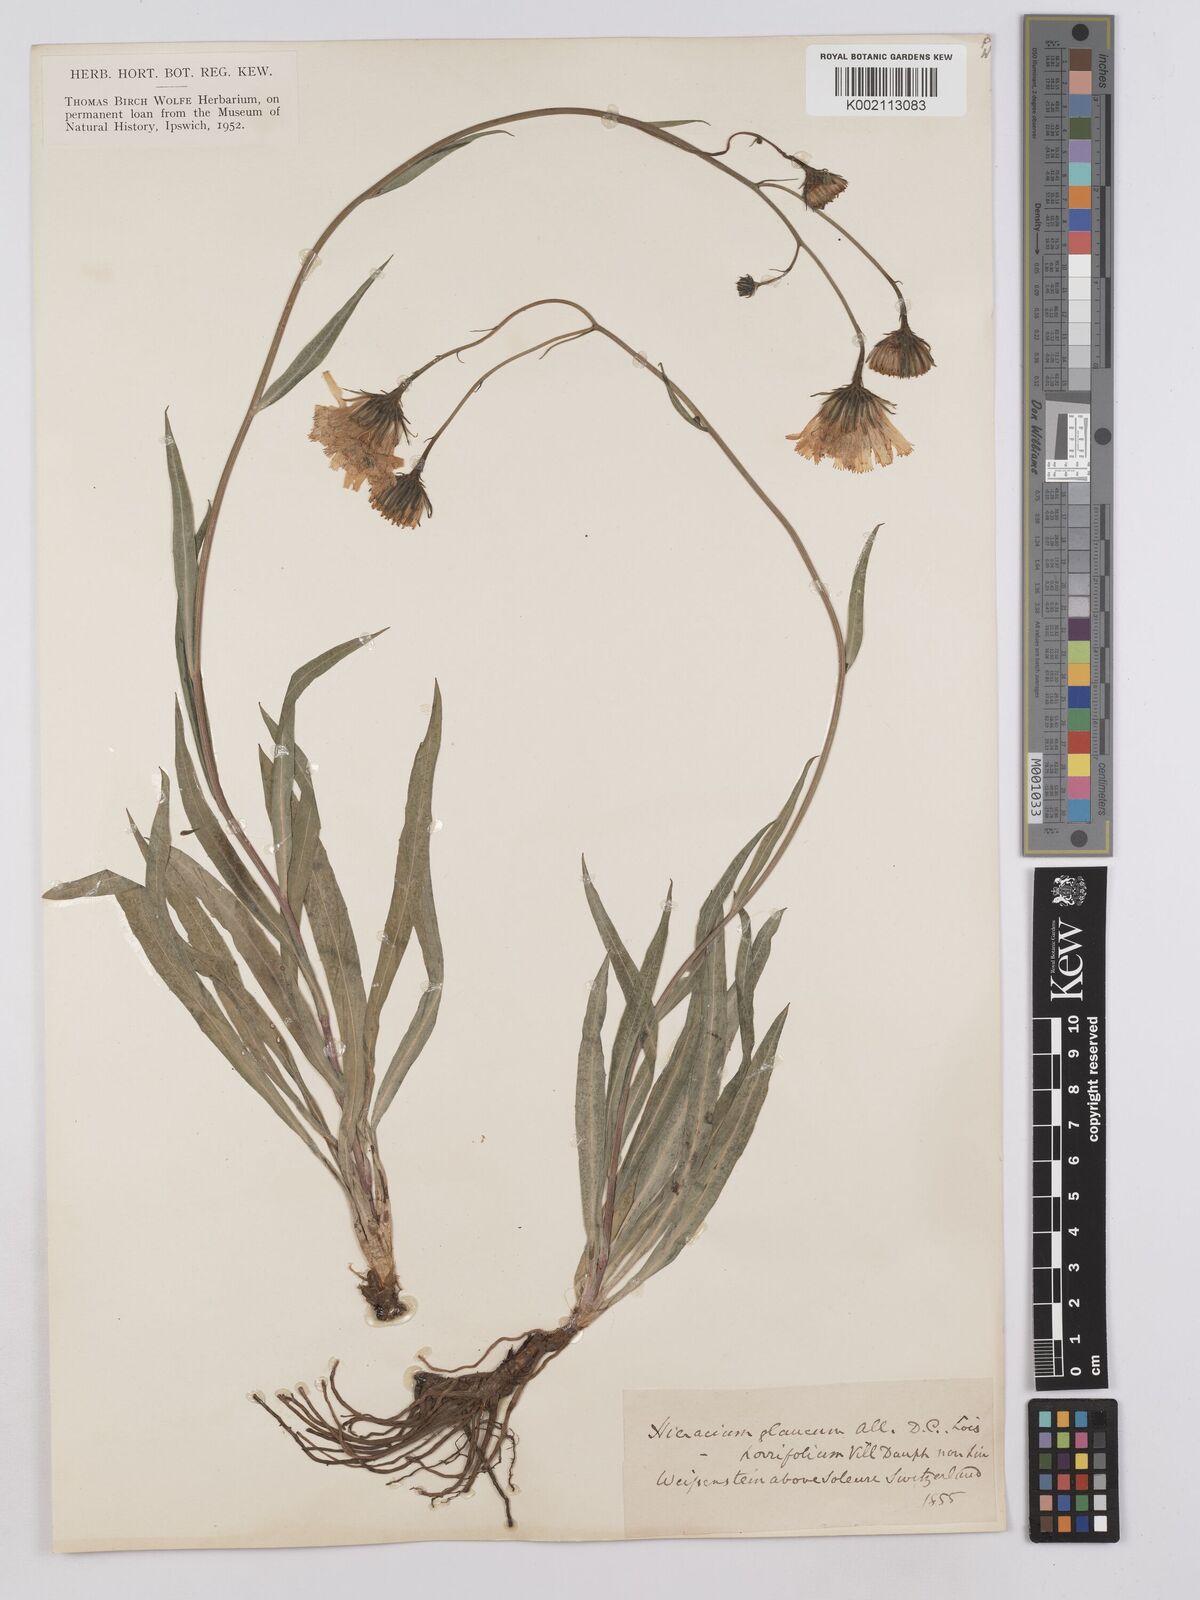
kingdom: Plantae
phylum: Tracheophyta
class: Magnoliopsida
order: Asterales
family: Asteraceae
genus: Hieracium
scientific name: Hieracium glaucum
